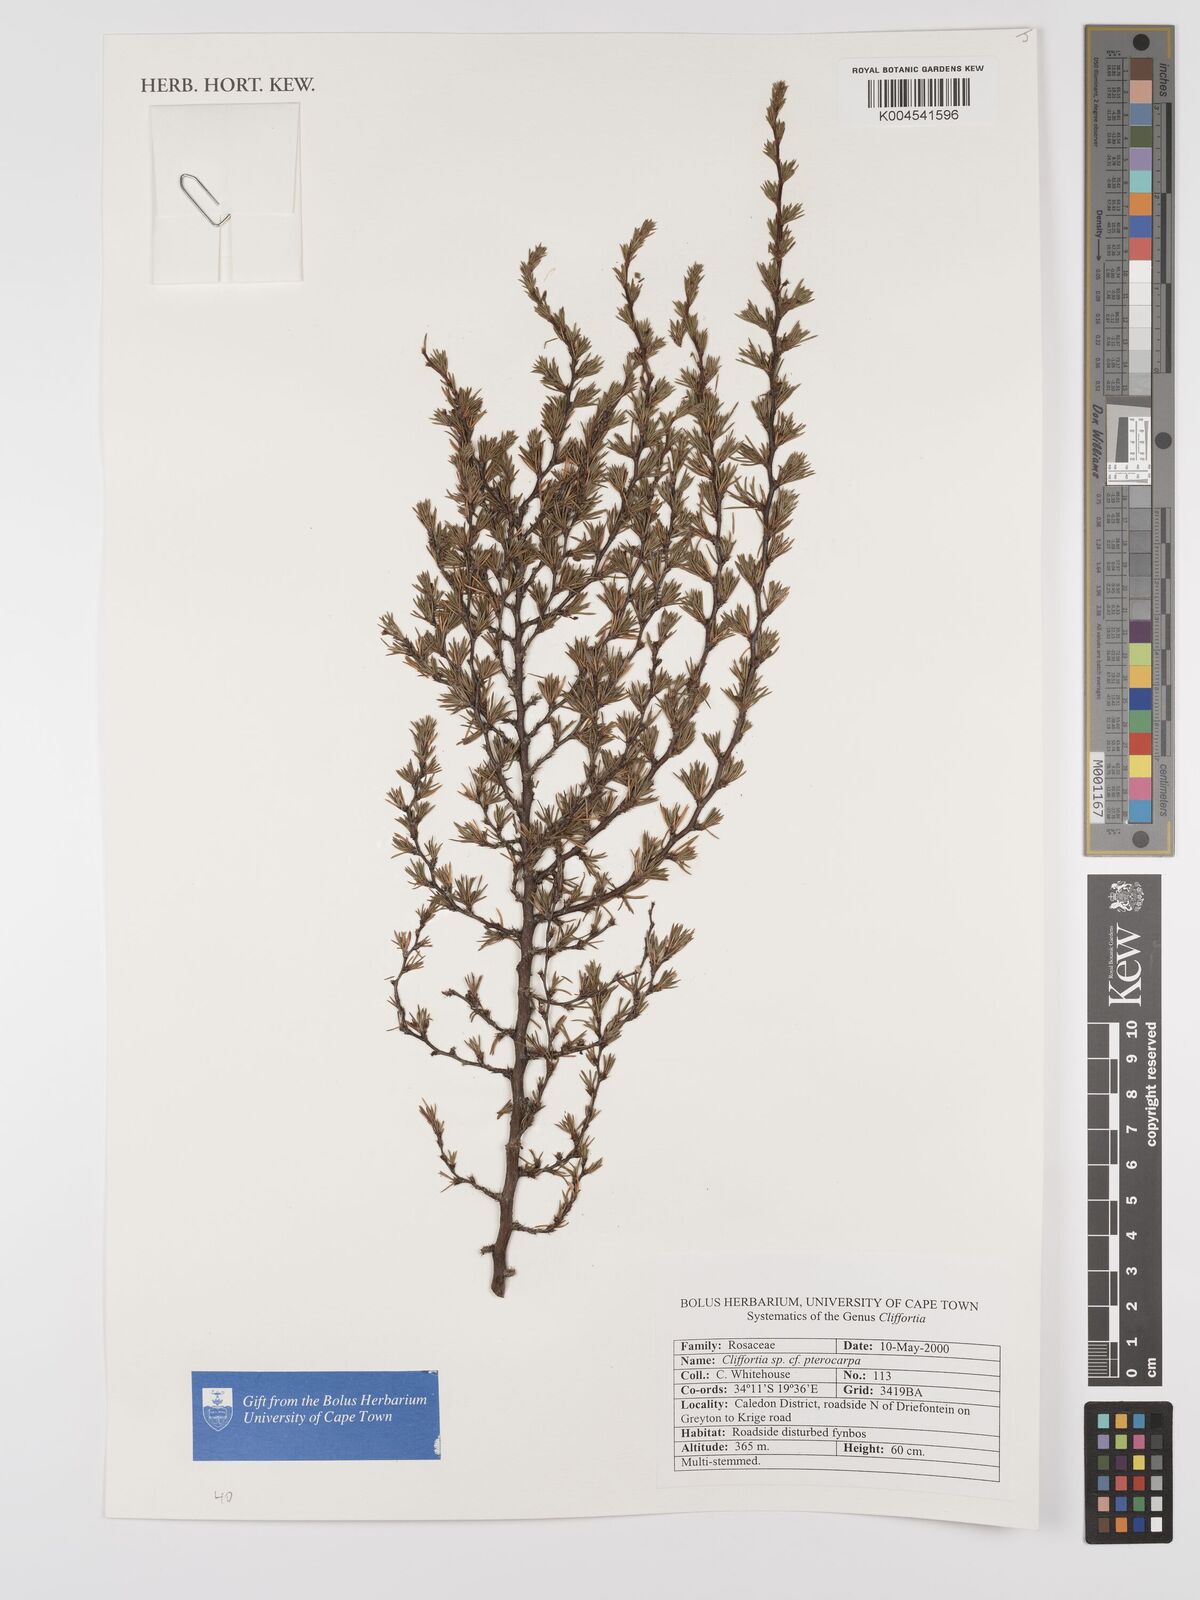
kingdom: Plantae
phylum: Tracheophyta
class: Magnoliopsida
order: Rosales
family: Rosaceae
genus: Cliffortia
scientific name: Cliffortia pterocarpa
